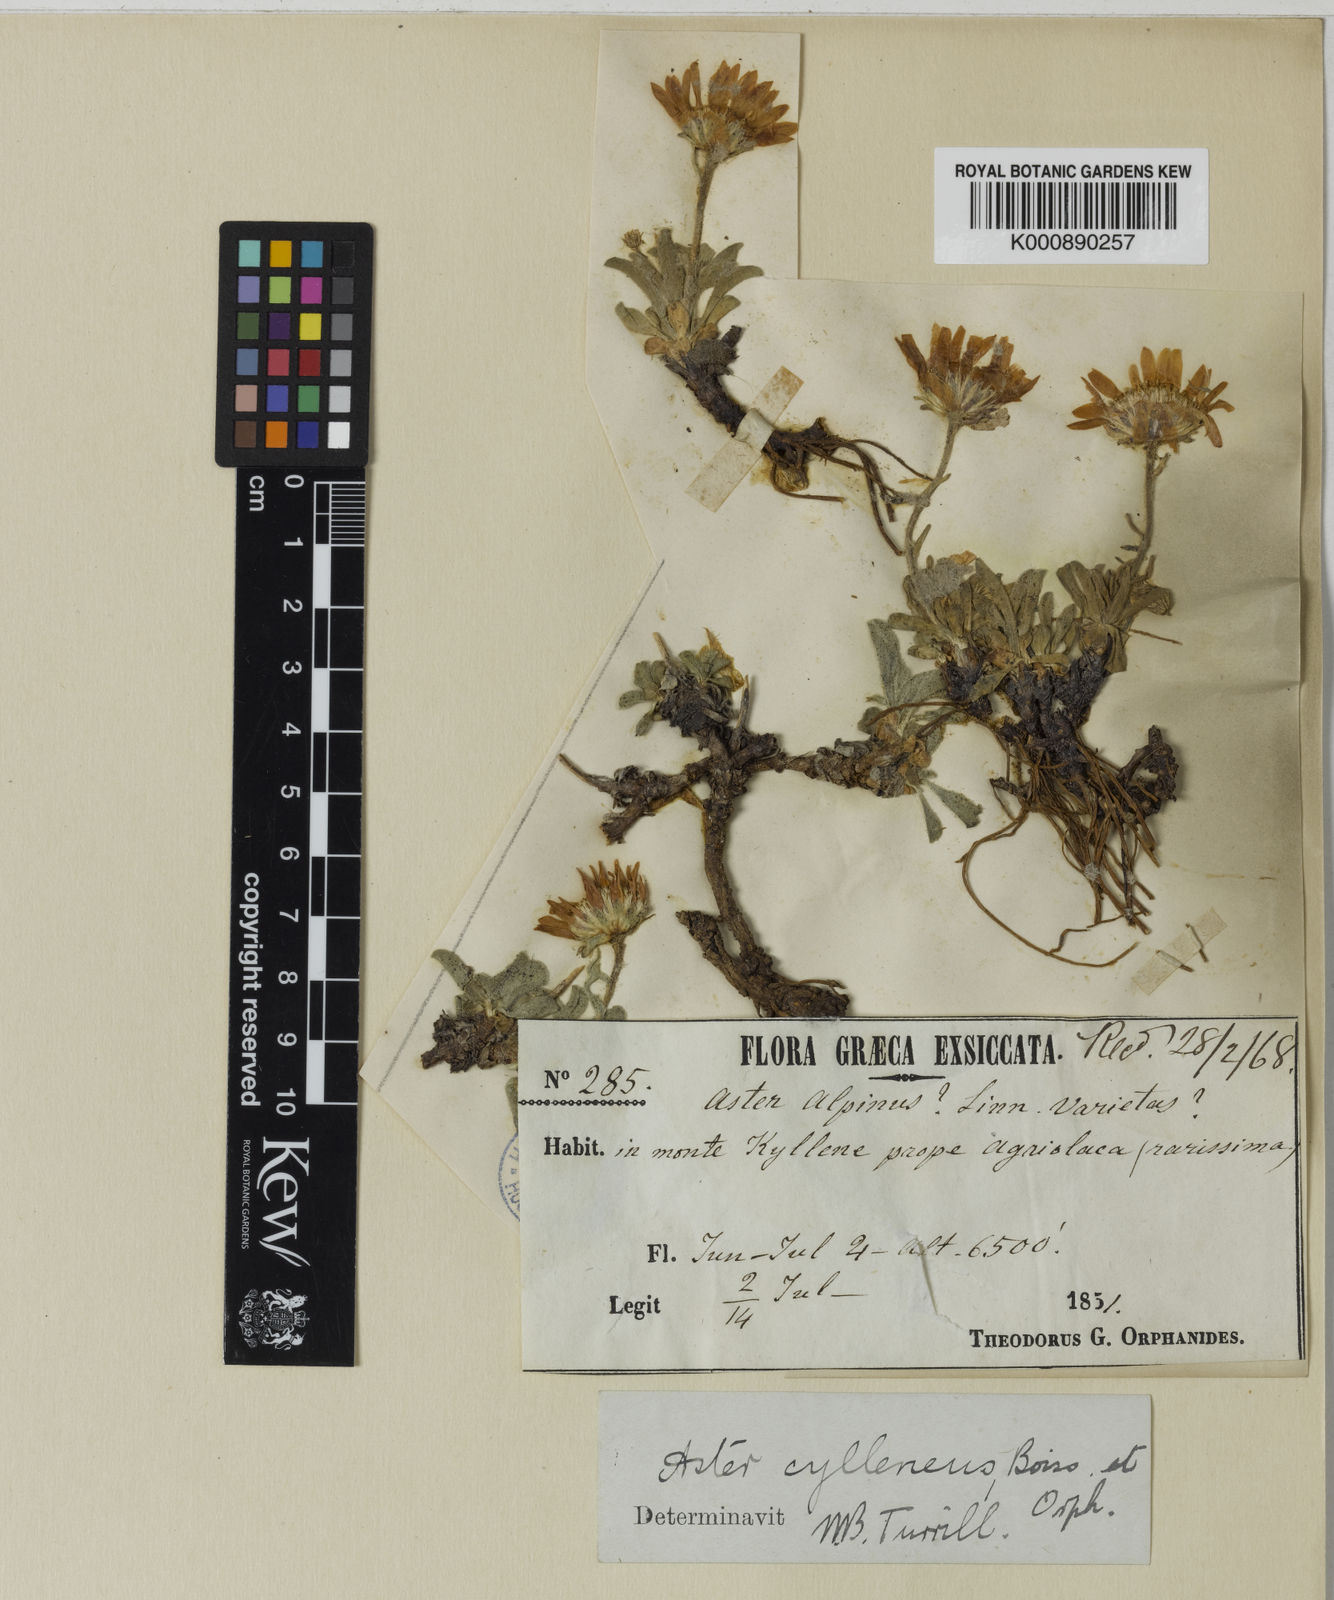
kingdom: Plantae
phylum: Tracheophyta
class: Magnoliopsida
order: Asterales
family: Asteraceae
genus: Aster
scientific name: Aster
